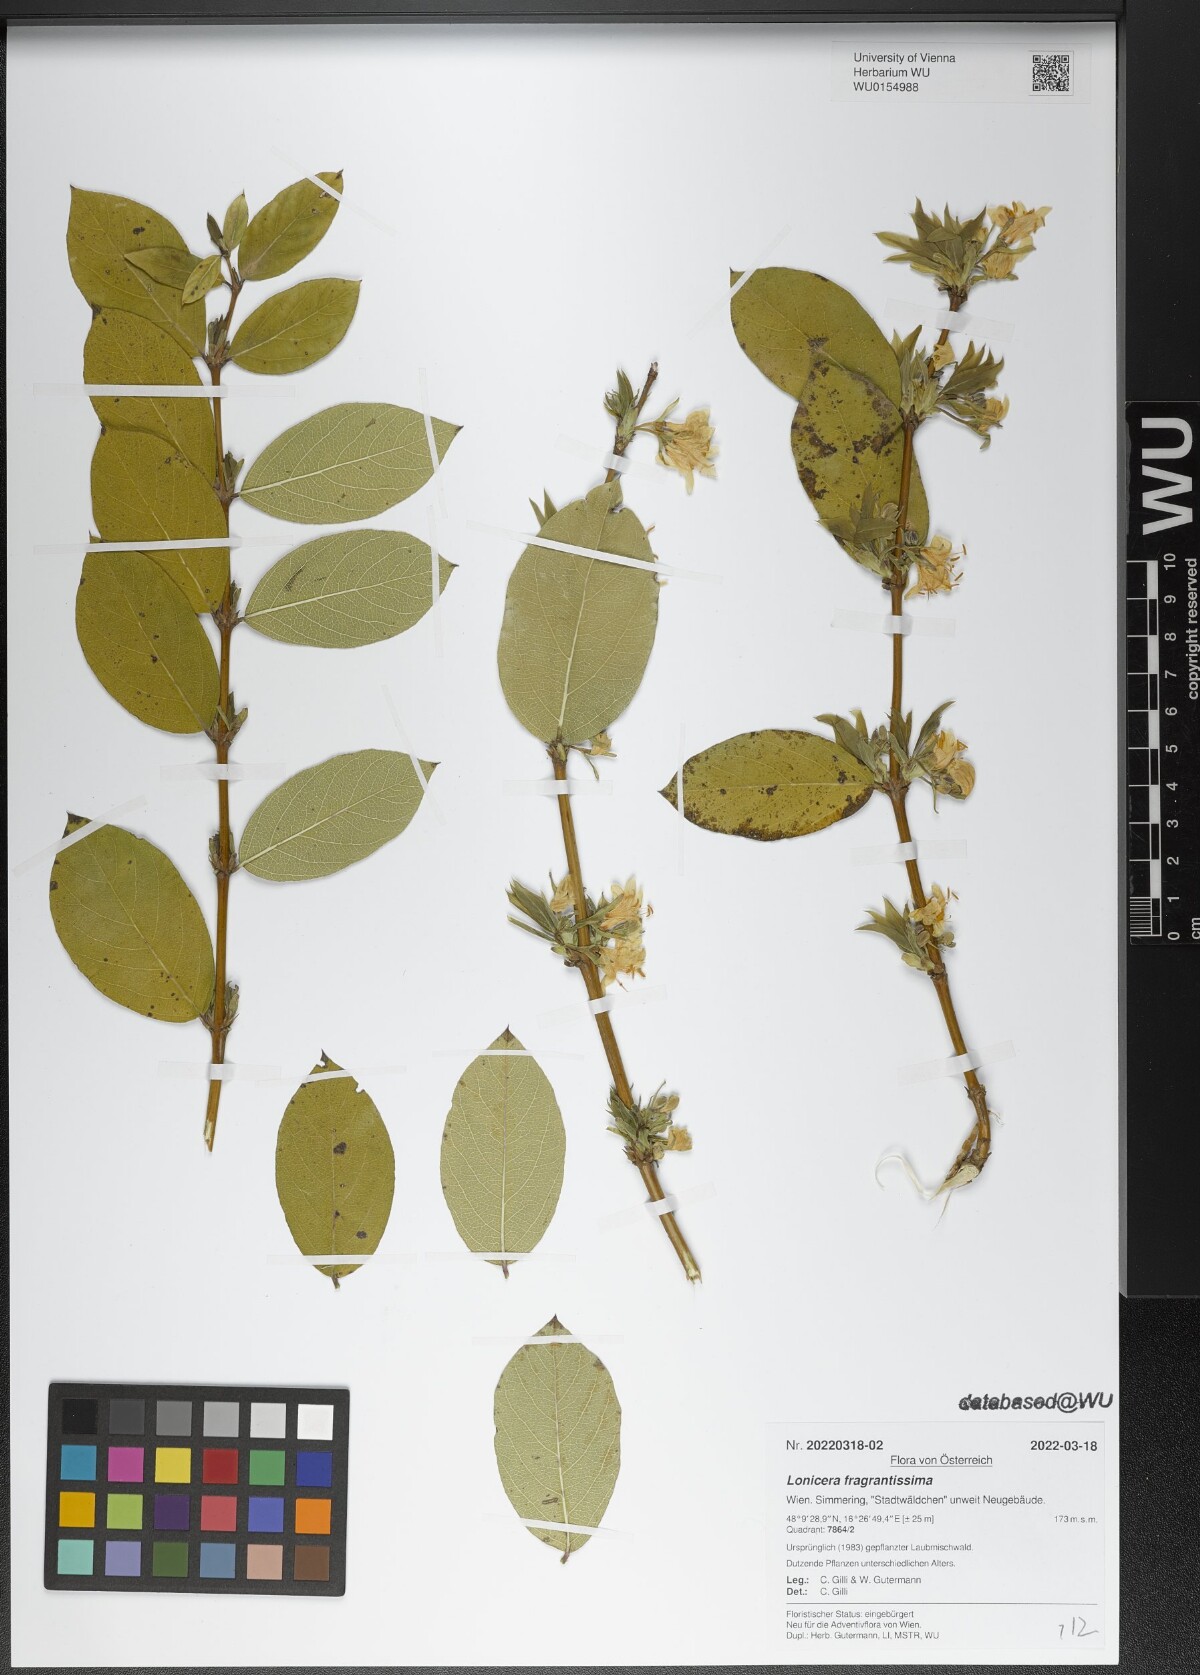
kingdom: Plantae
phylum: Tracheophyta
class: Magnoliopsida
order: Dipsacales
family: Caprifoliaceae
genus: Lonicera
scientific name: Lonicera fragrantissima
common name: Fragrant honeysuckle
